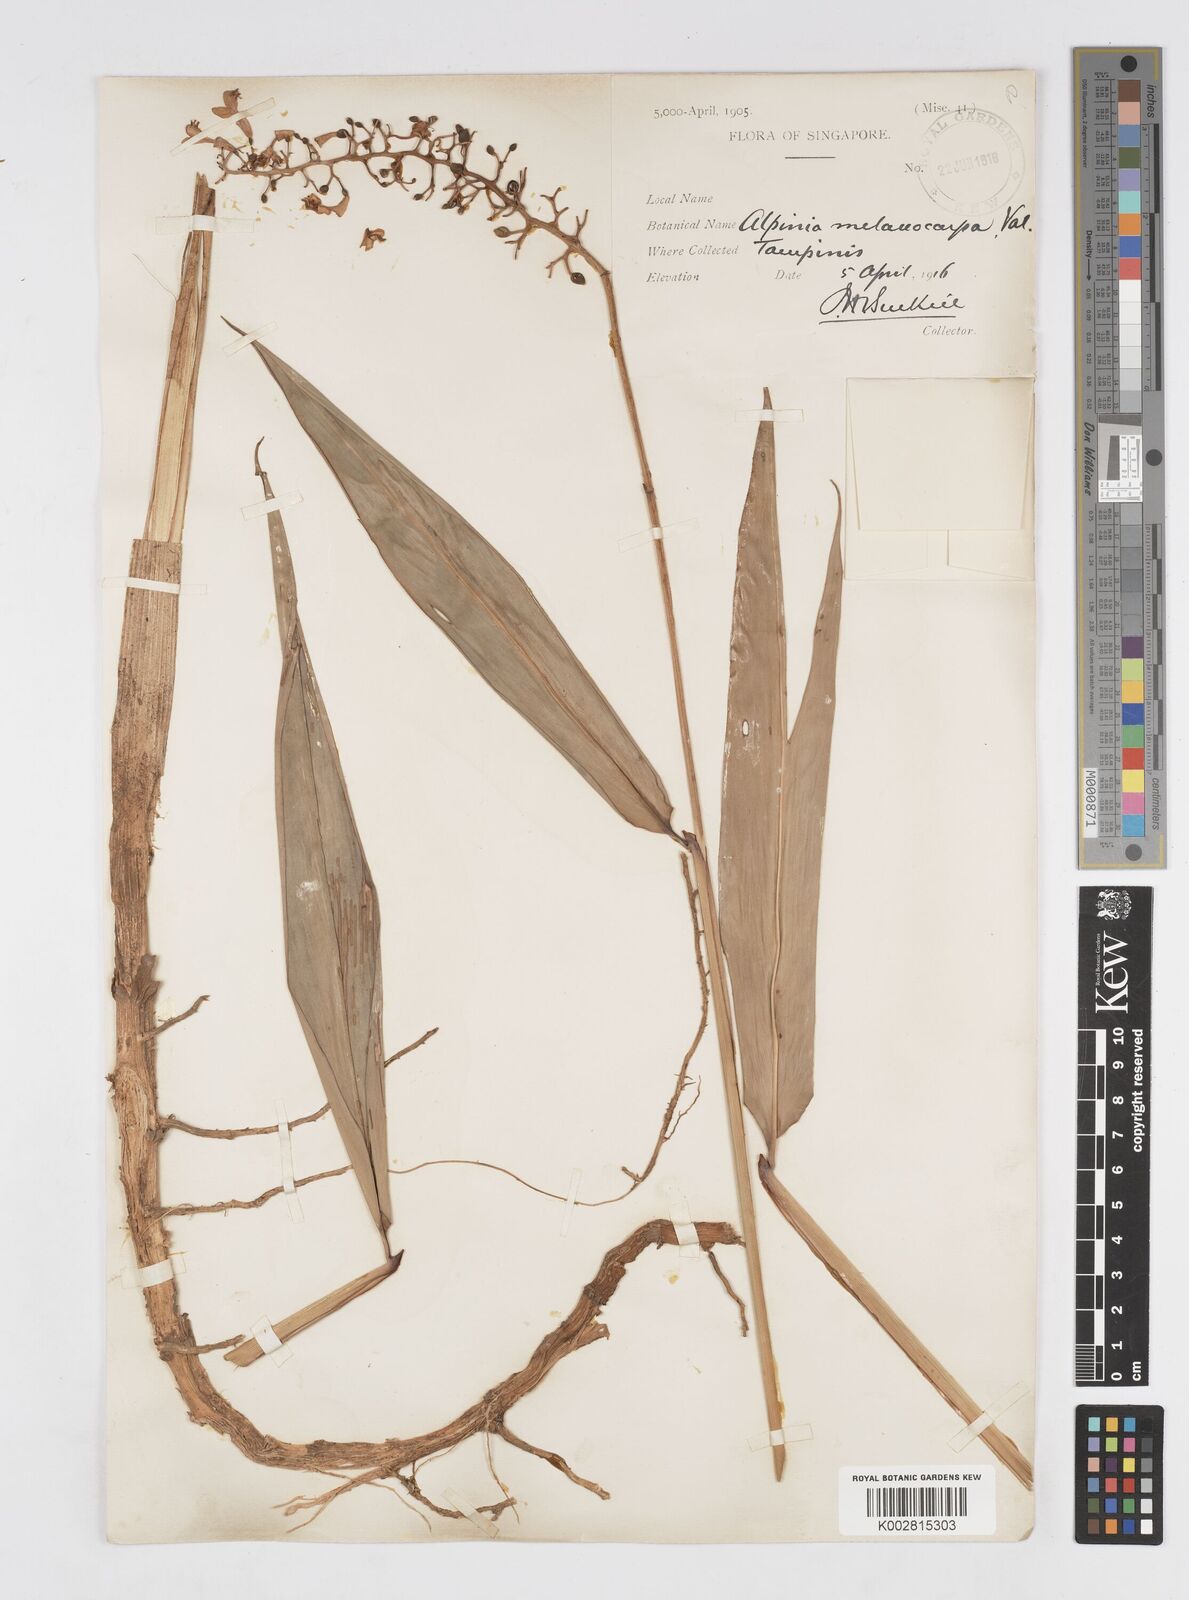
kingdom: Plantae
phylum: Tracheophyta
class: Liliopsida
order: Zingiberales
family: Zingiberaceae
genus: Alpinia
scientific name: Alpinia valetoniana
